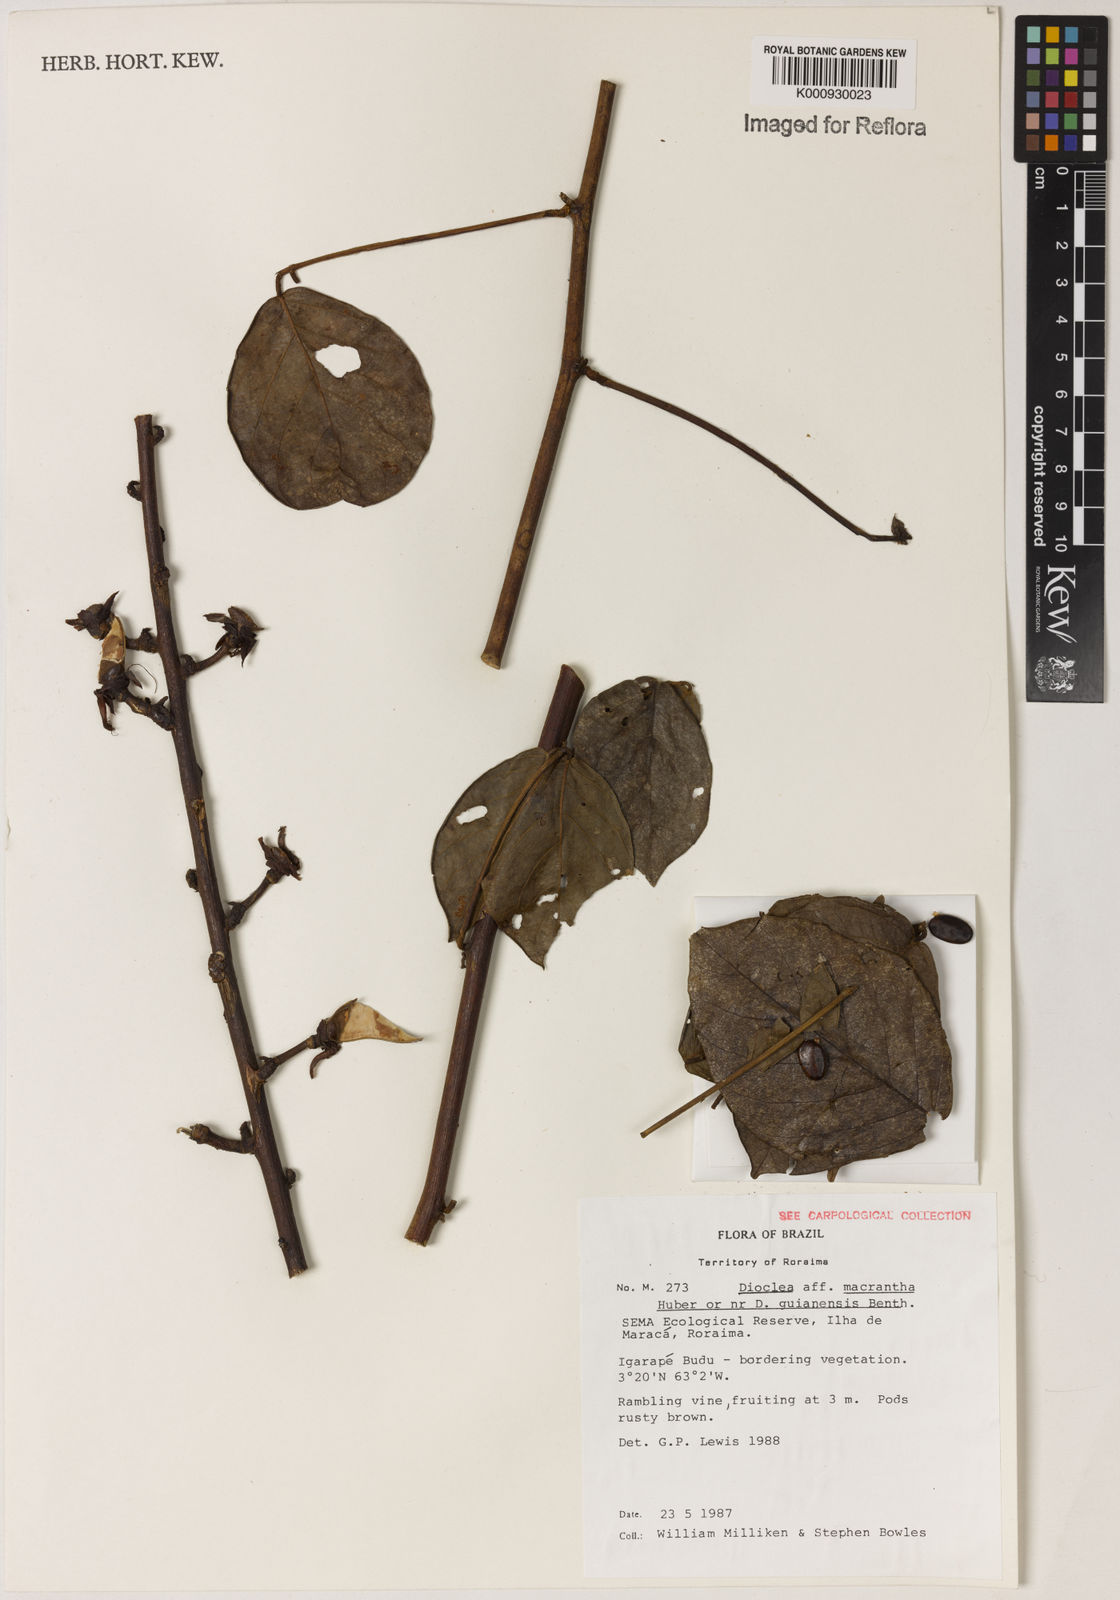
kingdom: Plantae
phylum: Tracheophyta
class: Magnoliopsida
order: Fabales
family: Fabaceae
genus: Dioclea
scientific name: Dioclea macrantha
